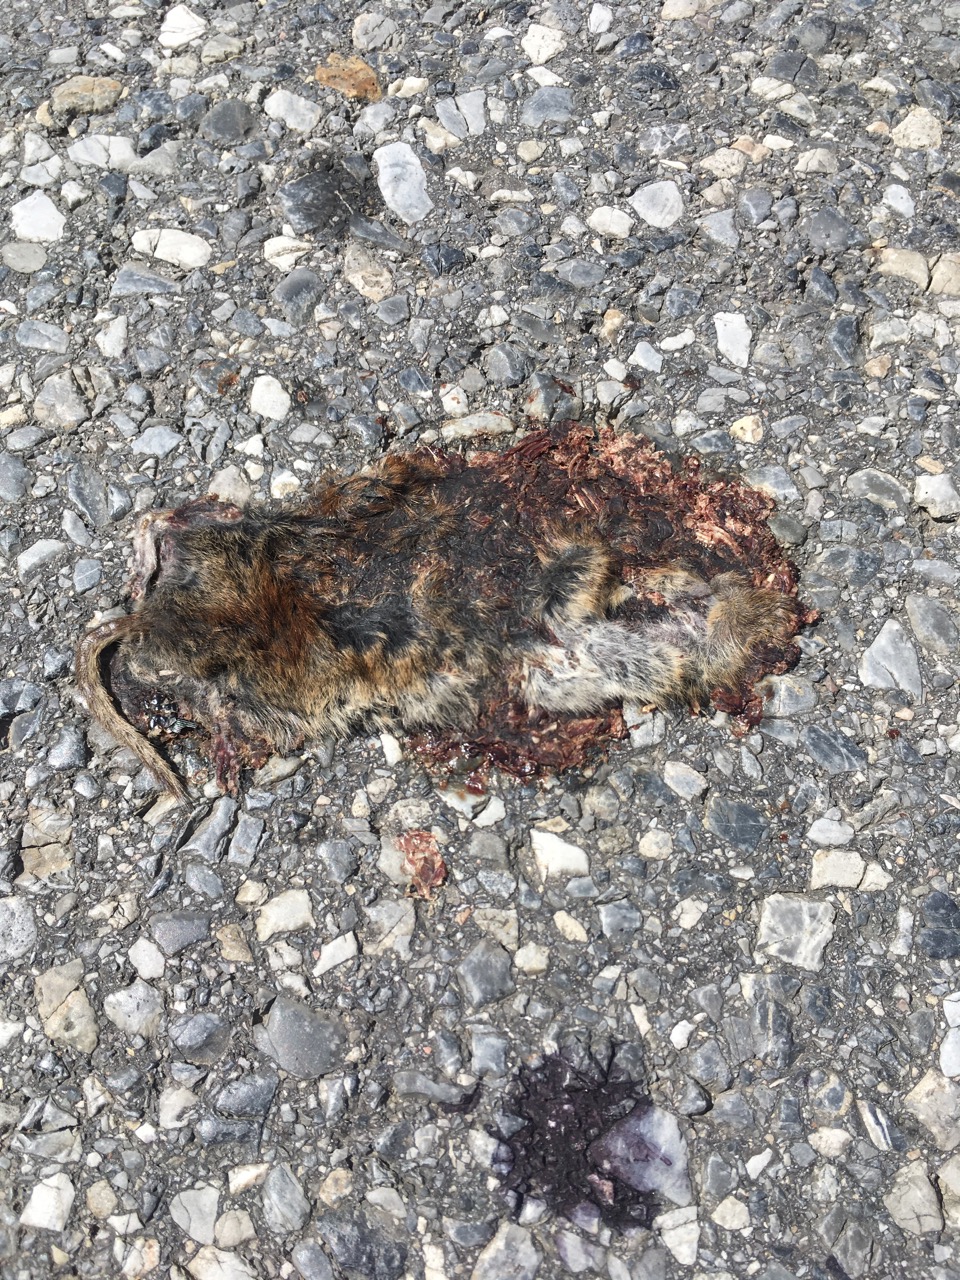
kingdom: Animalia
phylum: Chordata
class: Mammalia
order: Rodentia
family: Cricetidae
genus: Myodes
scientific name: Myodes glareolus
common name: Bank vole
